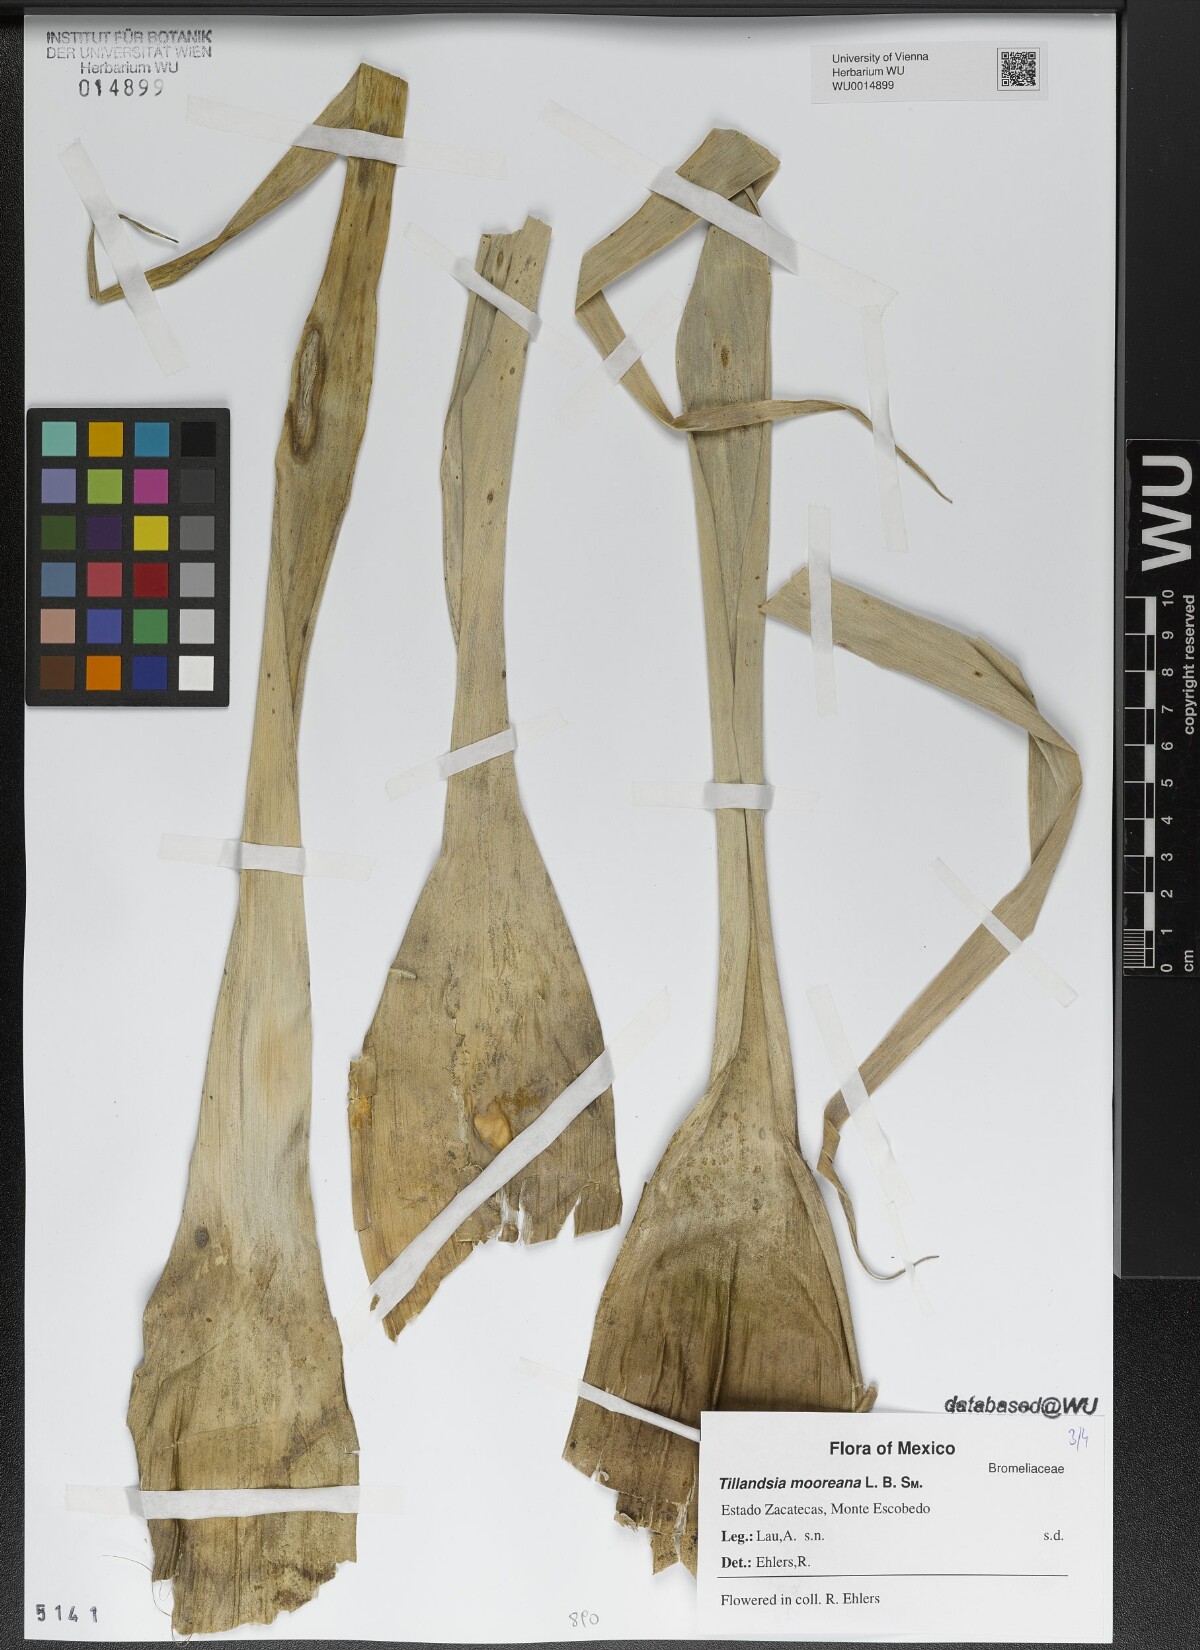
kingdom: Plantae
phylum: Tracheophyta
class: Liliopsida
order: Poales
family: Bromeliaceae
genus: Tillandsia
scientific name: Tillandsia mooreana
